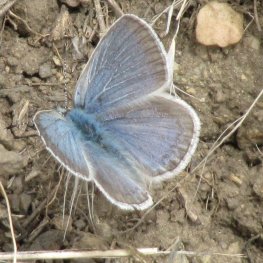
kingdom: Animalia
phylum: Arthropoda
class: Insecta
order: Lepidoptera
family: Lycaenidae
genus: Celastrina
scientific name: Celastrina lucia
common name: Northern Spring Azure
